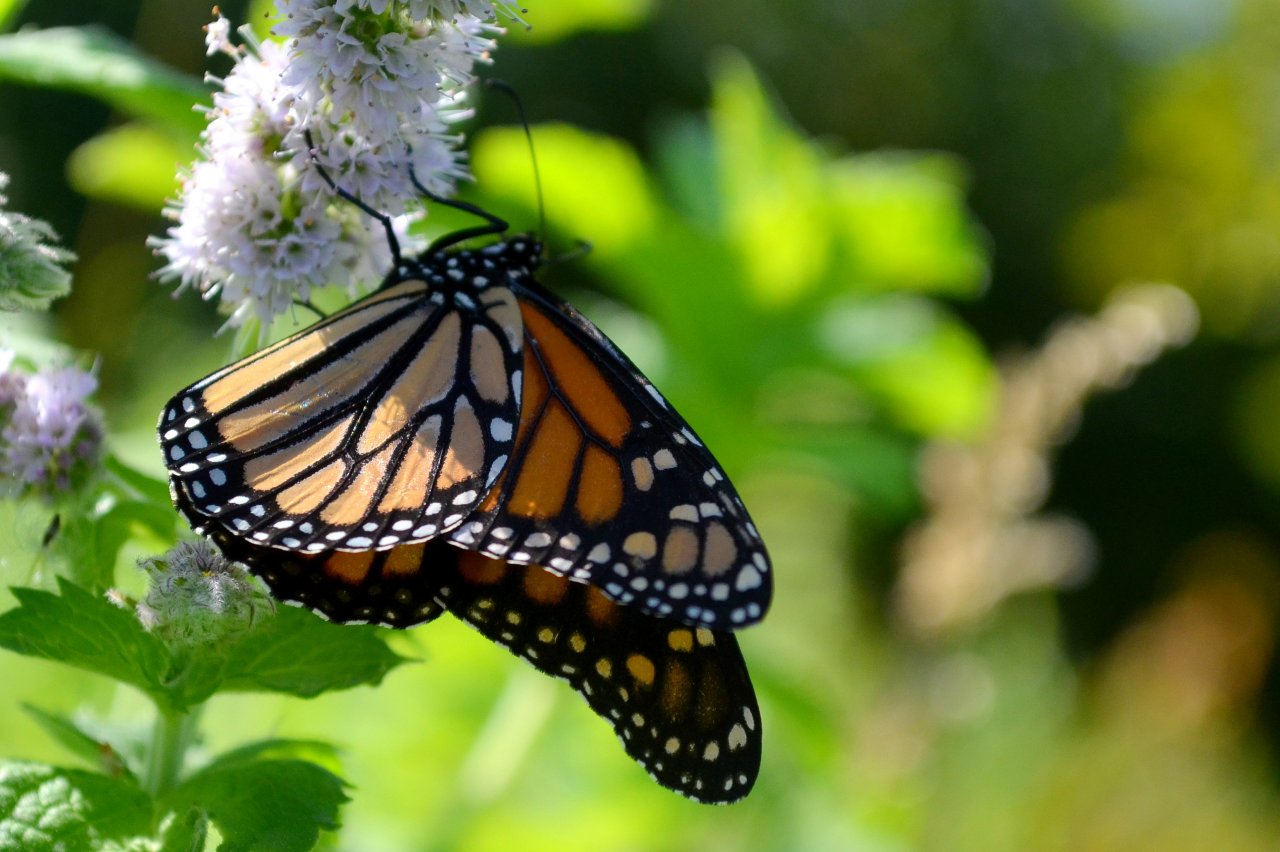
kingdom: Animalia
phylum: Arthropoda
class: Insecta
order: Lepidoptera
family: Nymphalidae
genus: Danaus
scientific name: Danaus plexippus
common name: Monarch
